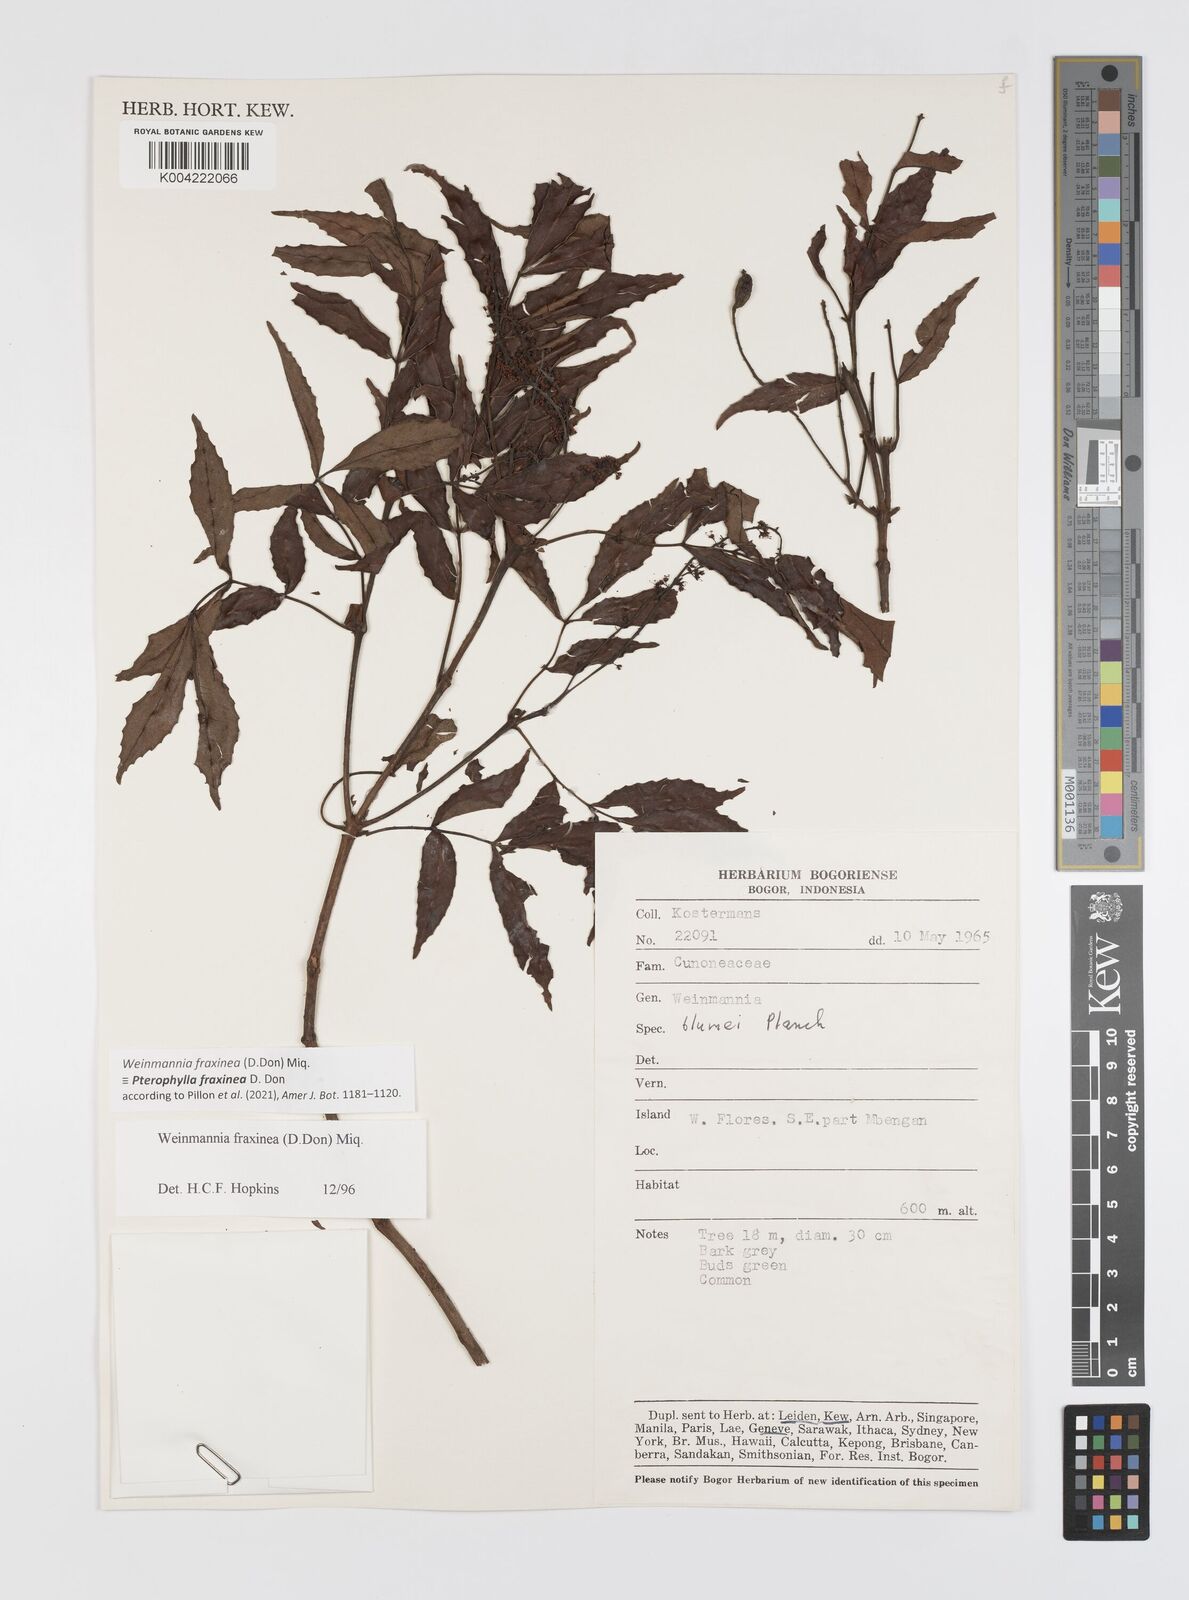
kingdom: Plantae
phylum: Tracheophyta
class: Magnoliopsida
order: Oxalidales
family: Cunoniaceae
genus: Pterophylla
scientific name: Pterophylla fraxinea
